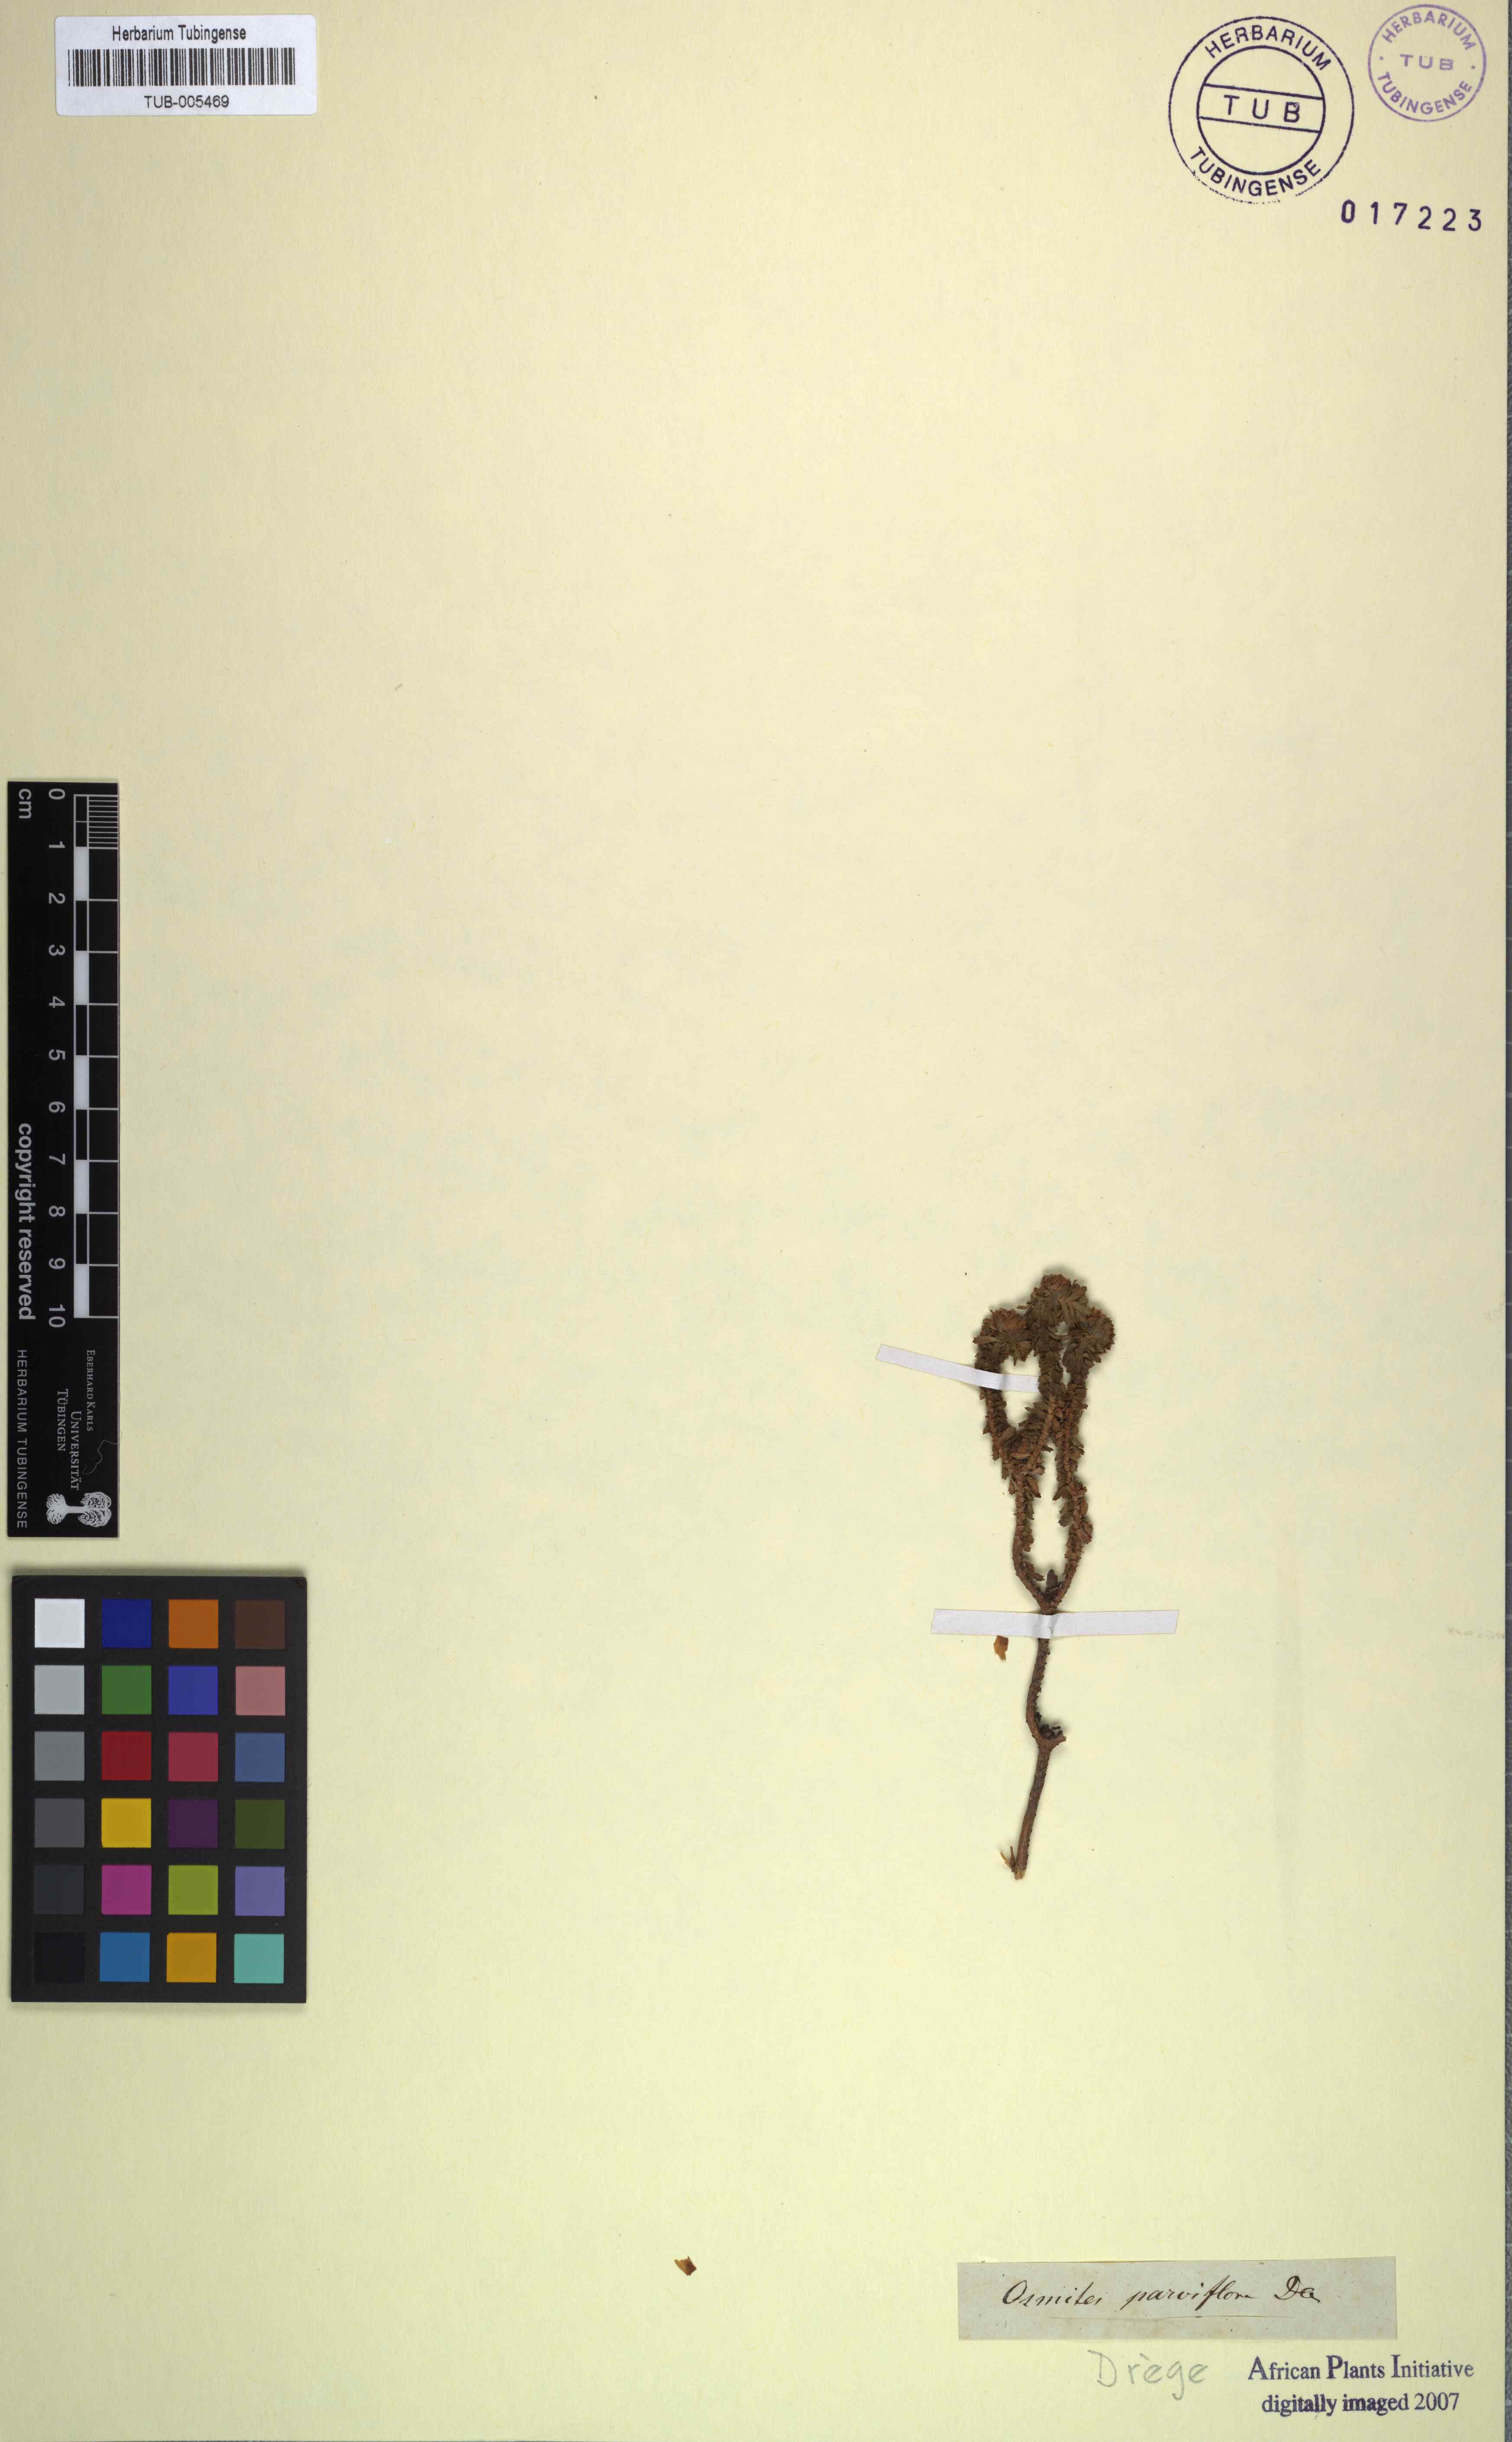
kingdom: Plantae
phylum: Tracheophyta
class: Magnoliopsida
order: Asterales
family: Asteraceae
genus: Osmitopsis
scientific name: Osmitopsis parvifolia
